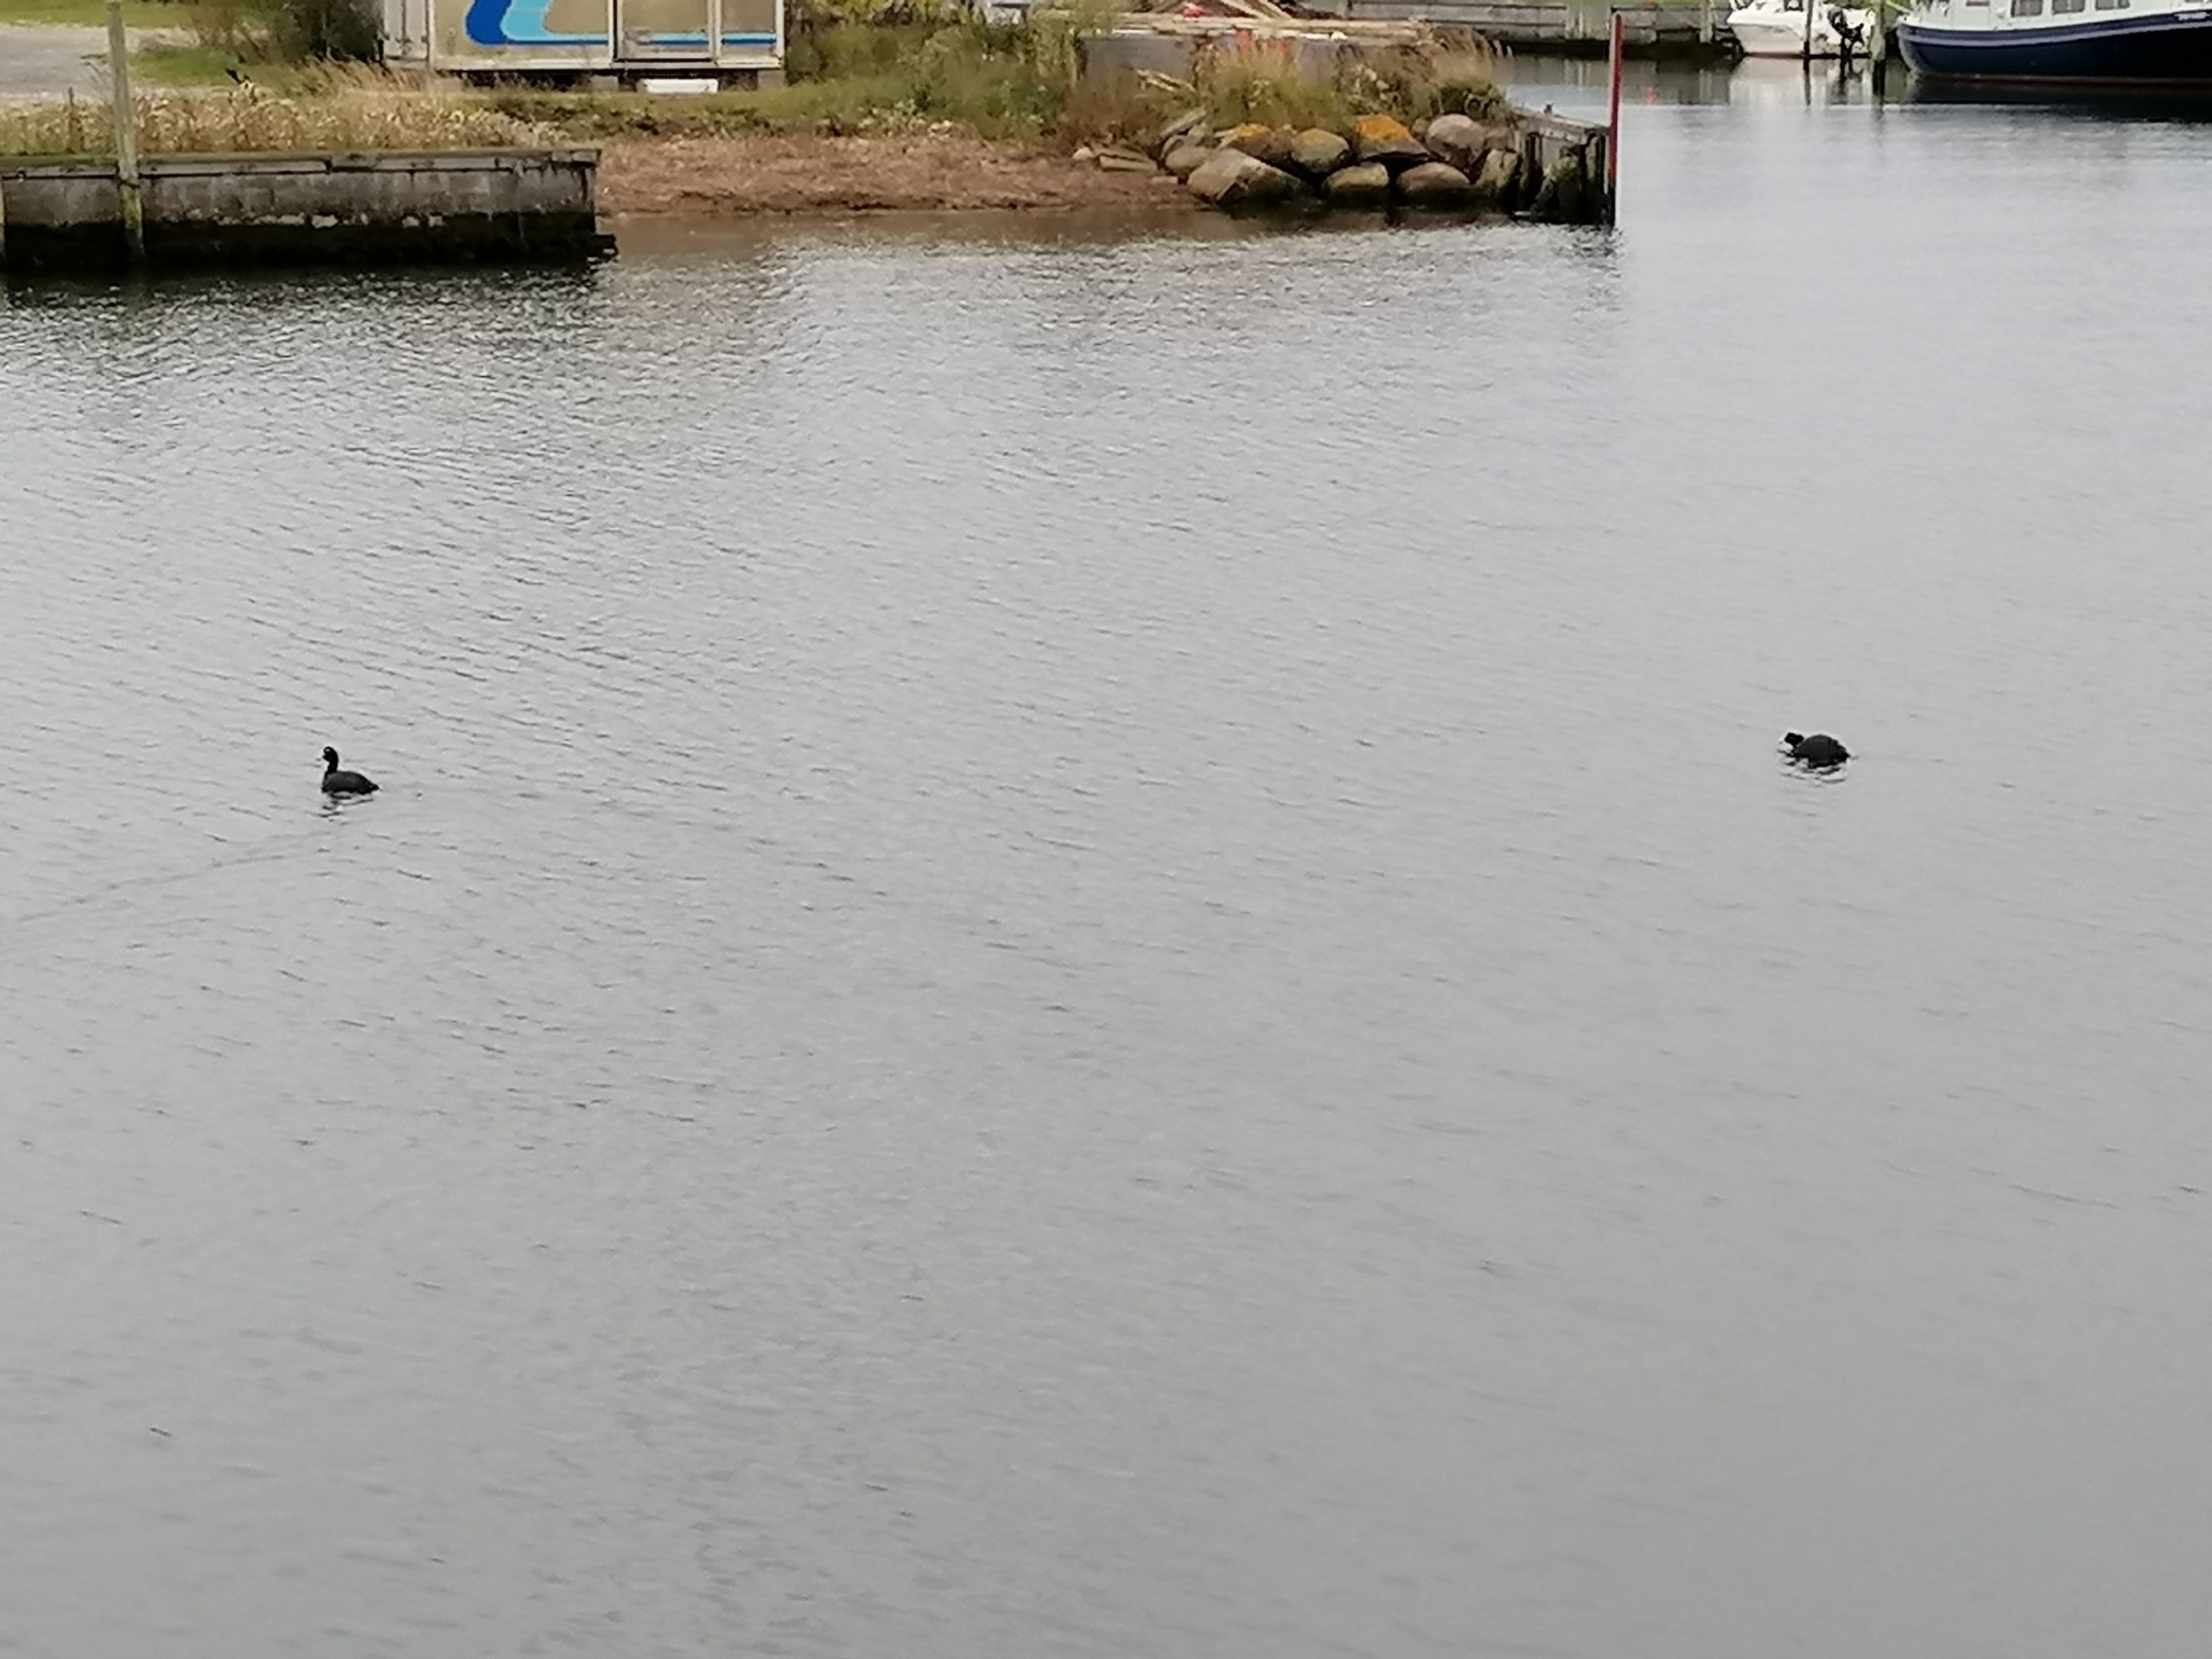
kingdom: Animalia
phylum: Chordata
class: Aves
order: Gruiformes
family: Rallidae
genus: Fulica
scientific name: Fulica atra
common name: Blishøne
